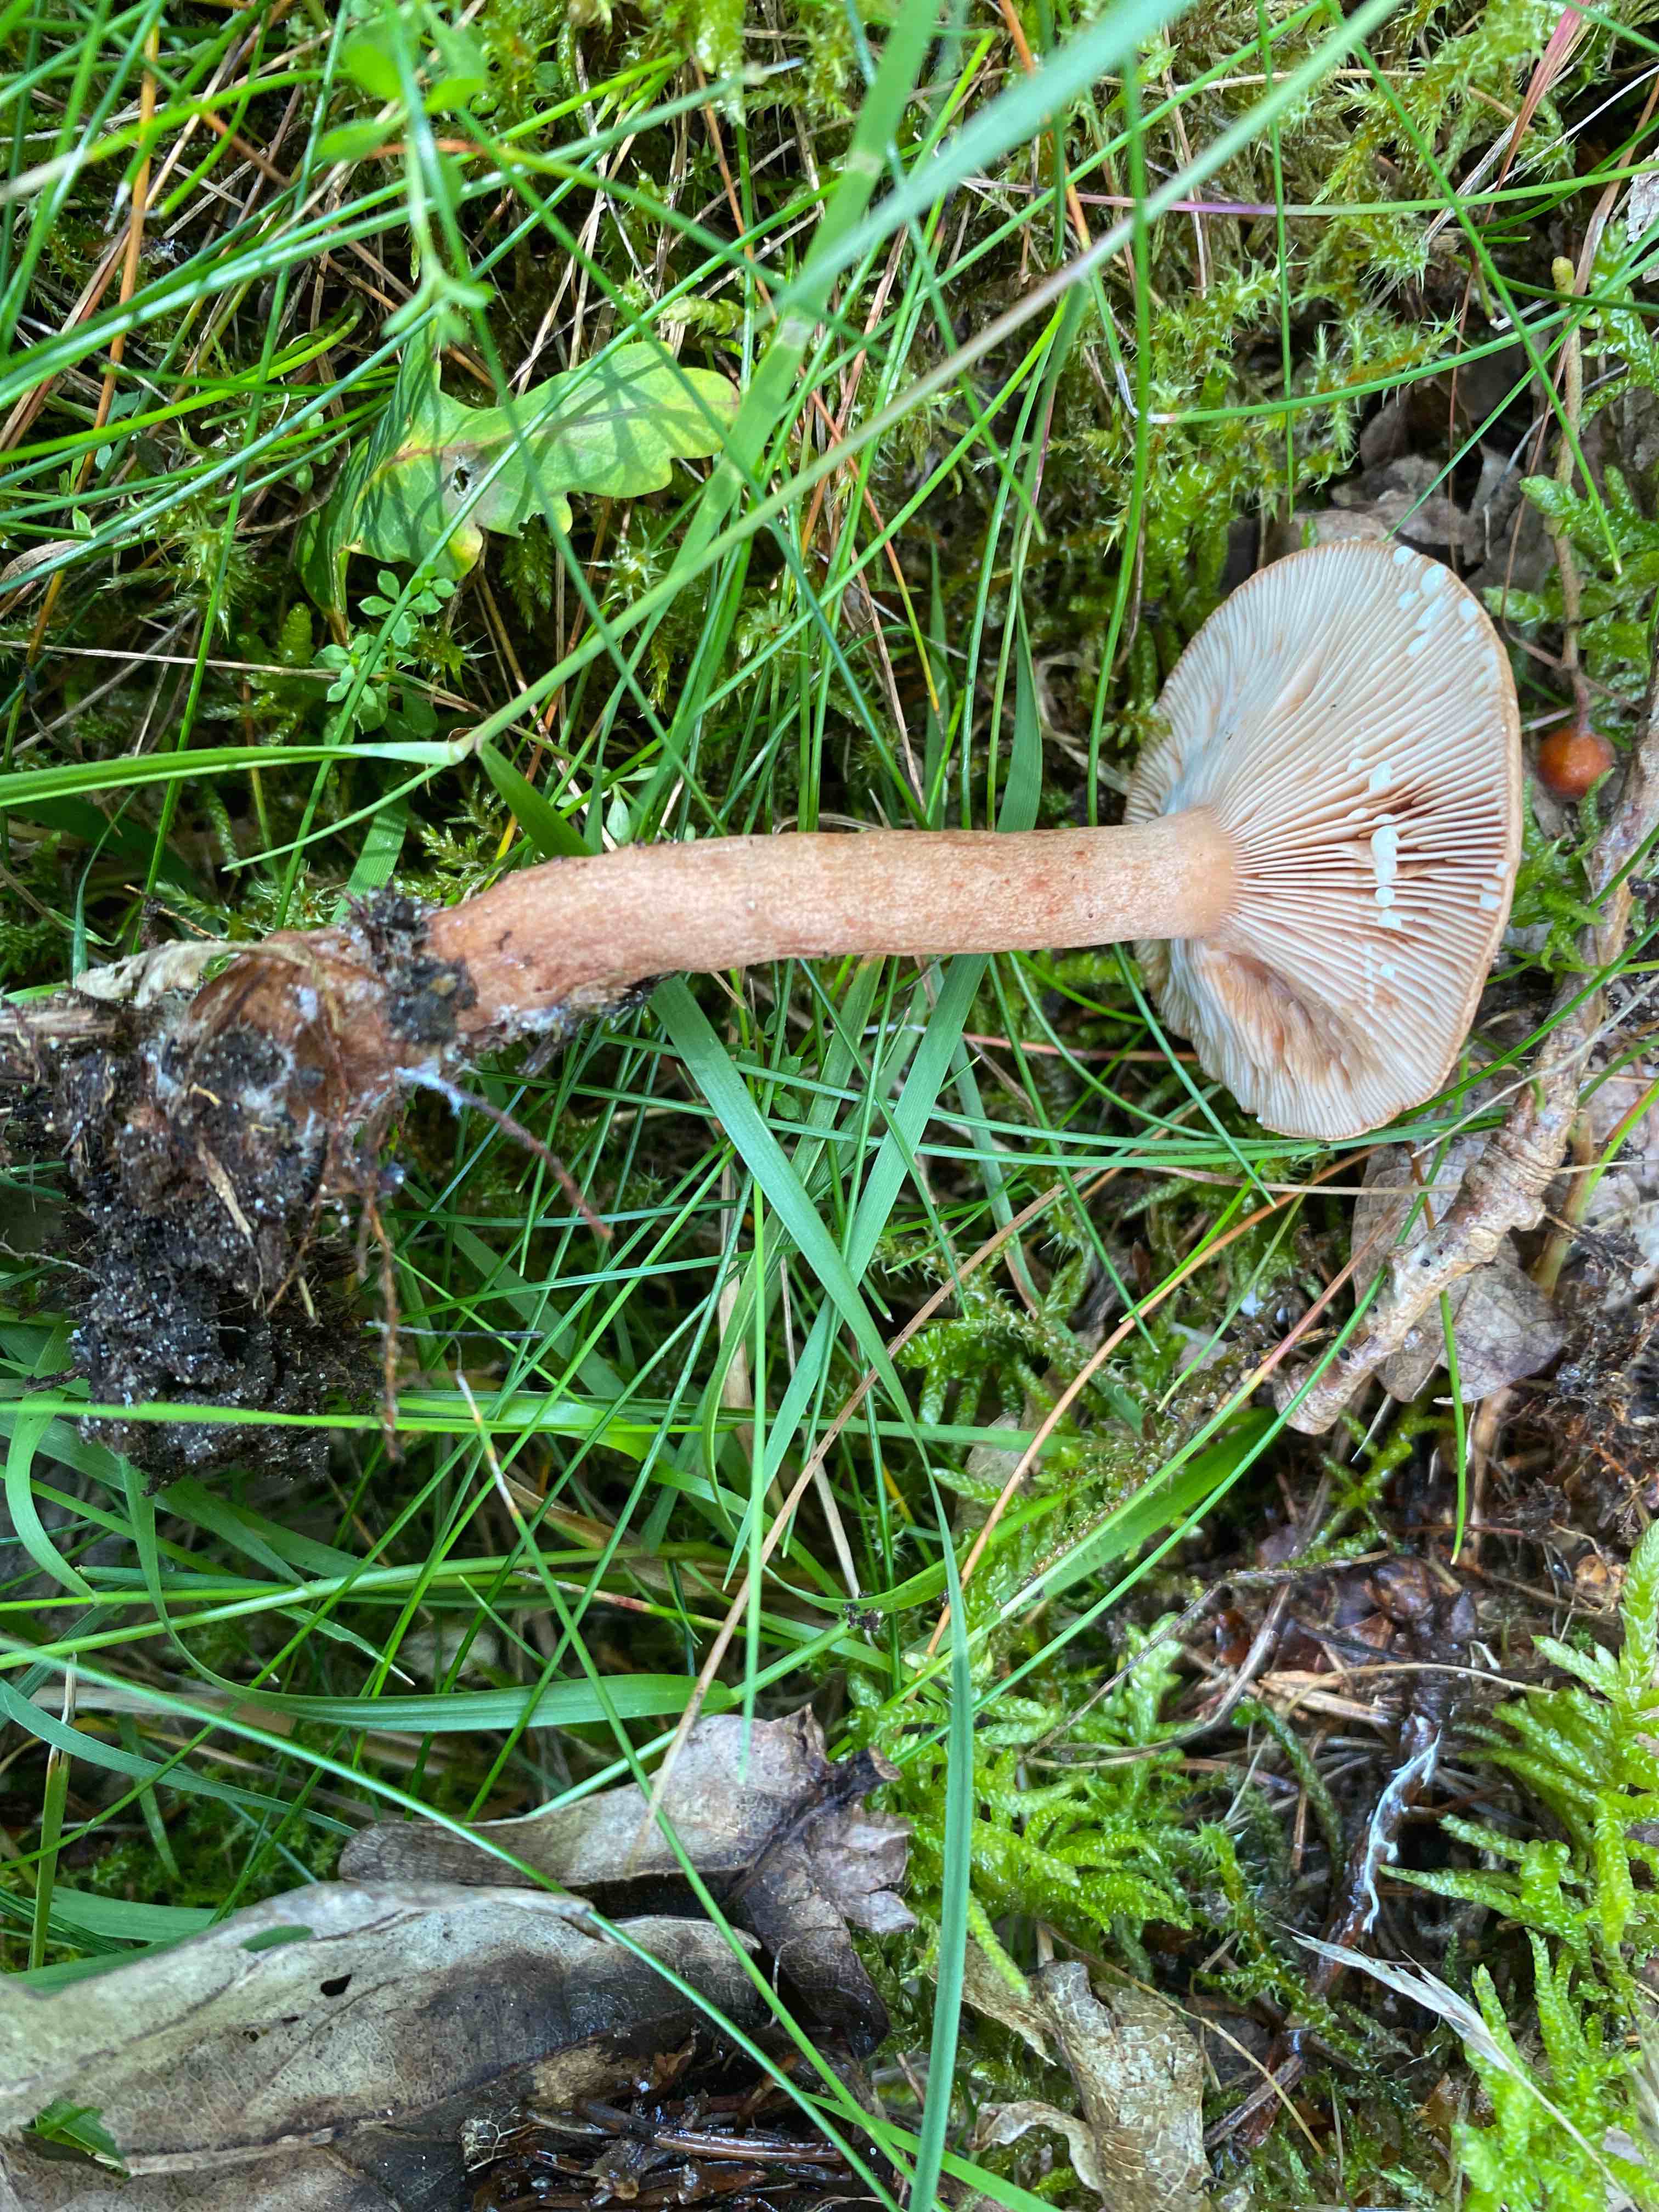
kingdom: Fungi
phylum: Basidiomycota
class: Agaricomycetes
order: Russulales
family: Russulaceae
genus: Lactarius
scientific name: Lactarius quietus
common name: ege-mælkehat
